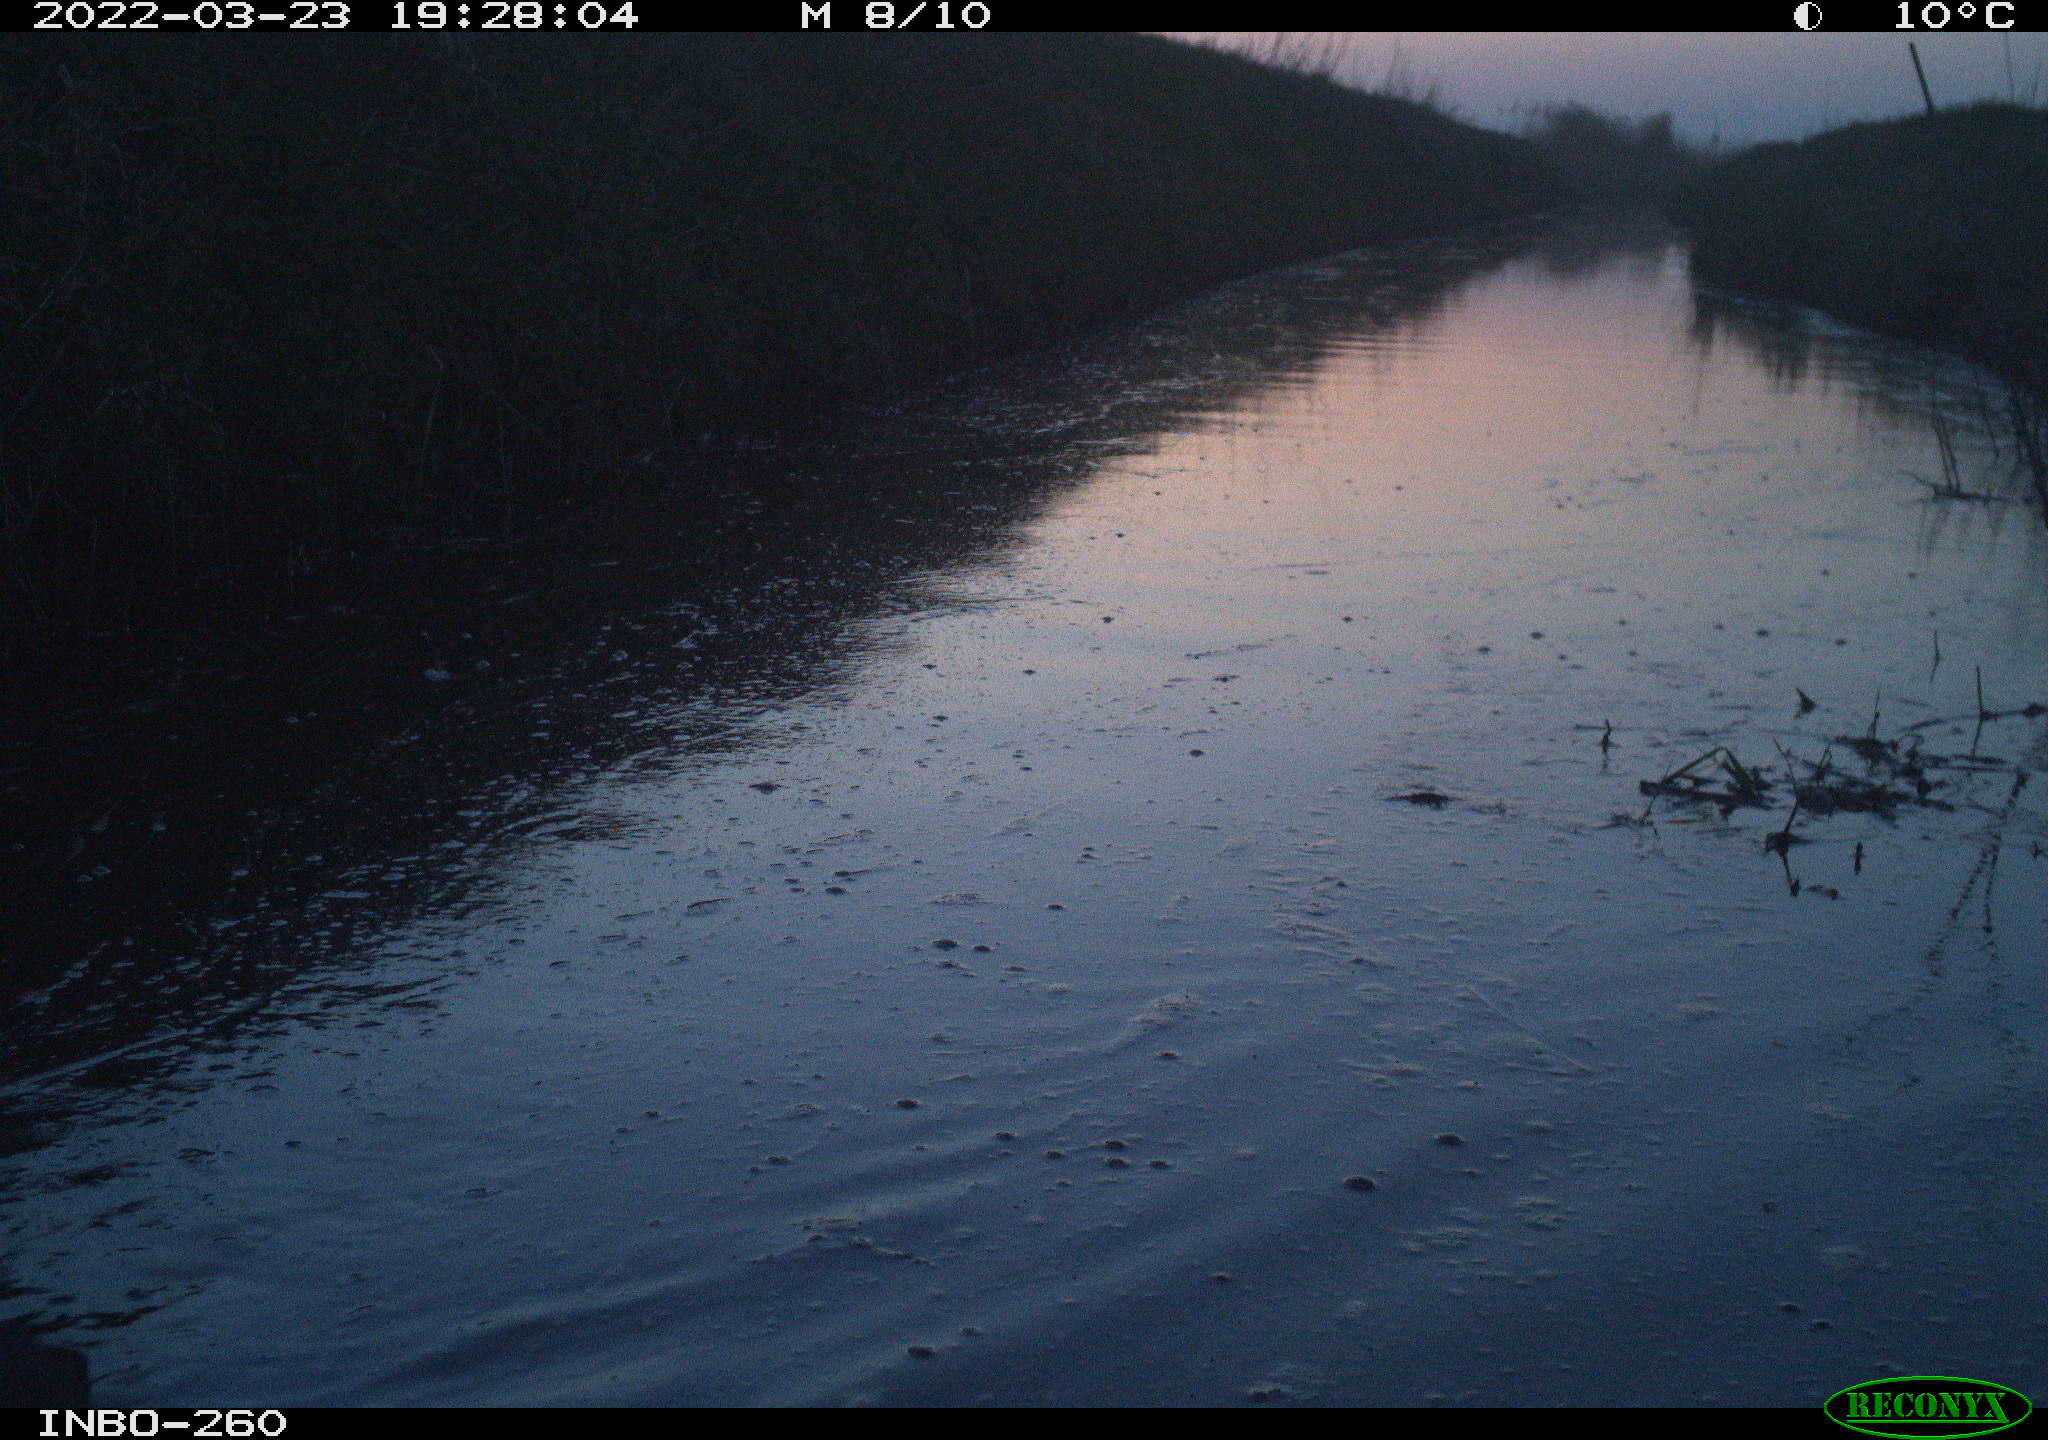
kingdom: Animalia
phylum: Chordata
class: Aves
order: Gruiformes
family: Rallidae
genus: Fulica
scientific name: Fulica atra
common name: Eurasian coot
